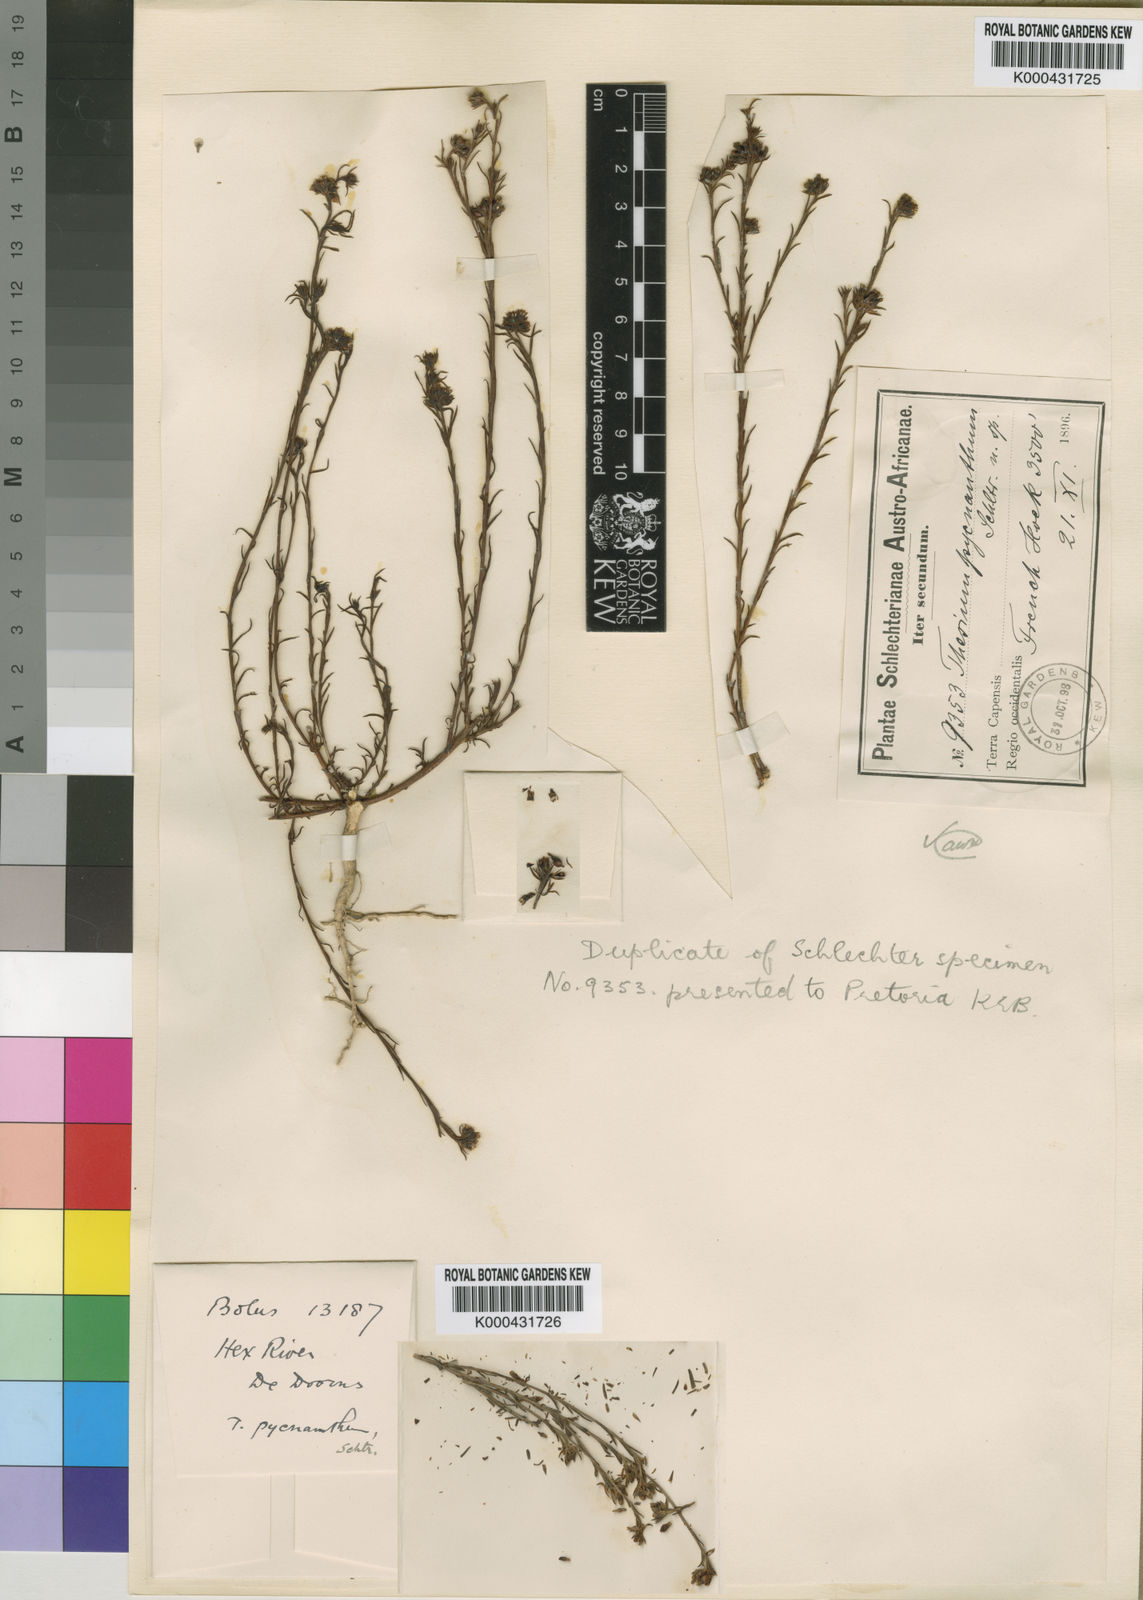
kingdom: Plantae
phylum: Tracheophyta
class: Magnoliopsida
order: Santalales
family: Thesiaceae
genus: Thesium
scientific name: Thesium pycnanthum
